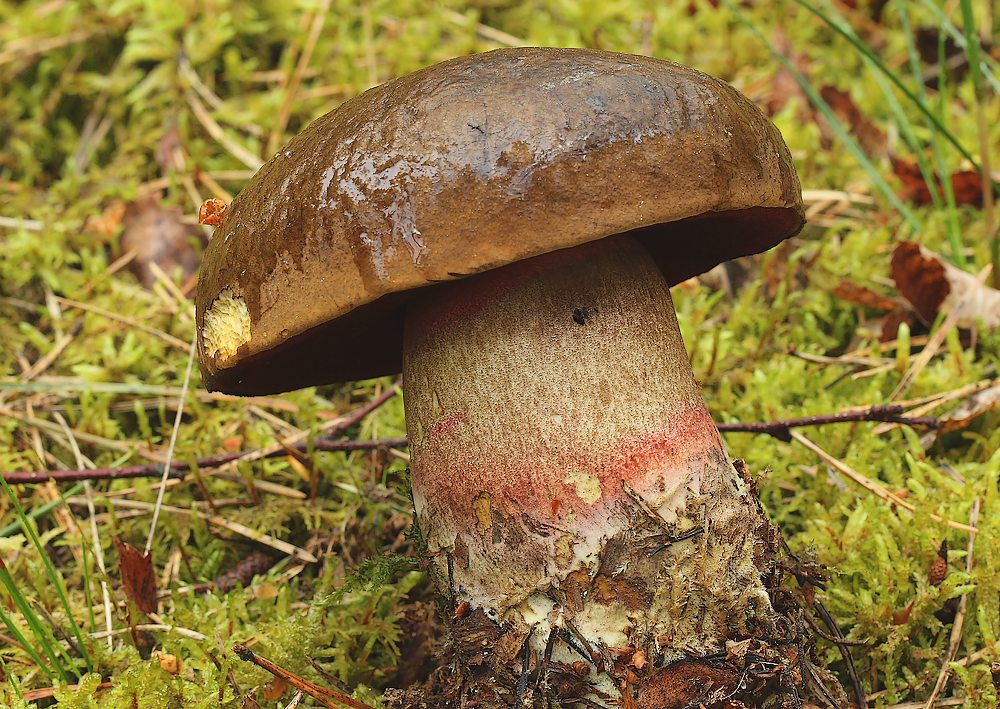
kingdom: Fungi
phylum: Basidiomycota
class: Agaricomycetes
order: Boletales
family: Boletaceae
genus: Neoboletus
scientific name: Neoboletus erythropus
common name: punktstokket indigorørhat
